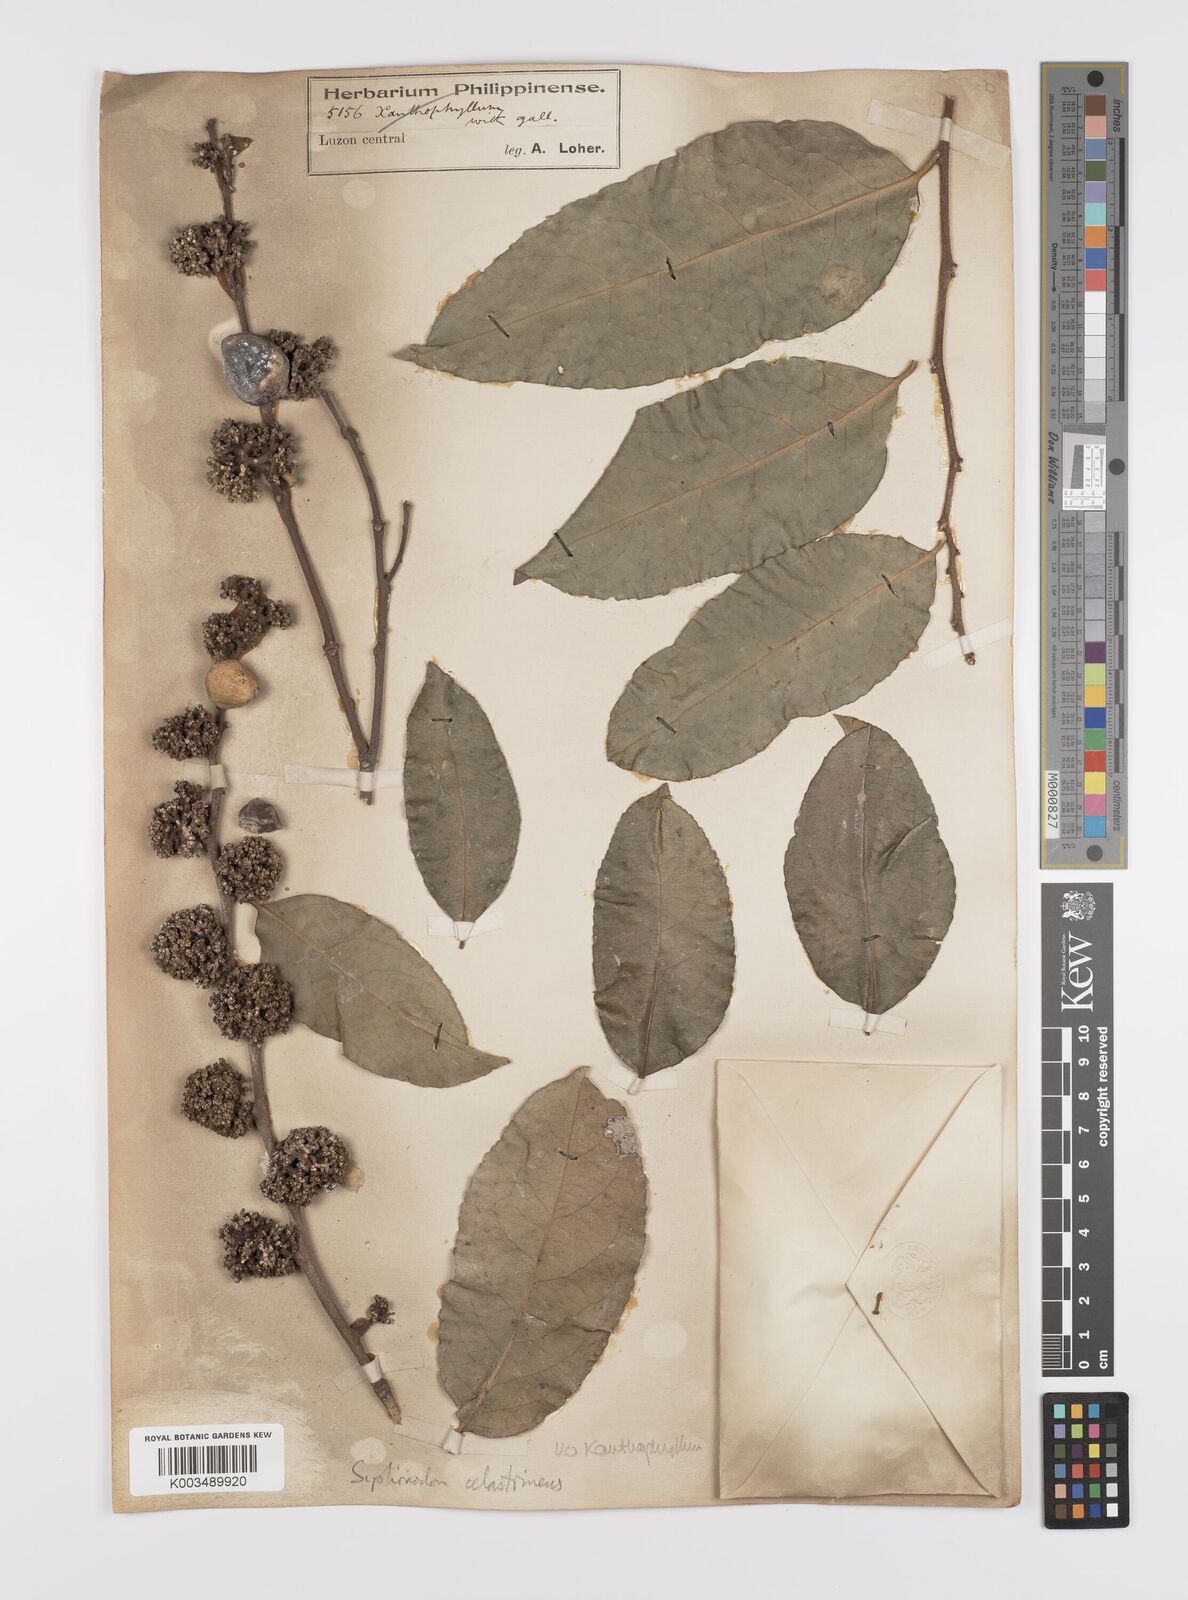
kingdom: Plantae
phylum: Tracheophyta
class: Magnoliopsida
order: Celastrales
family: Celastraceae
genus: Siphonodon
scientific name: Siphonodon celastrineus
